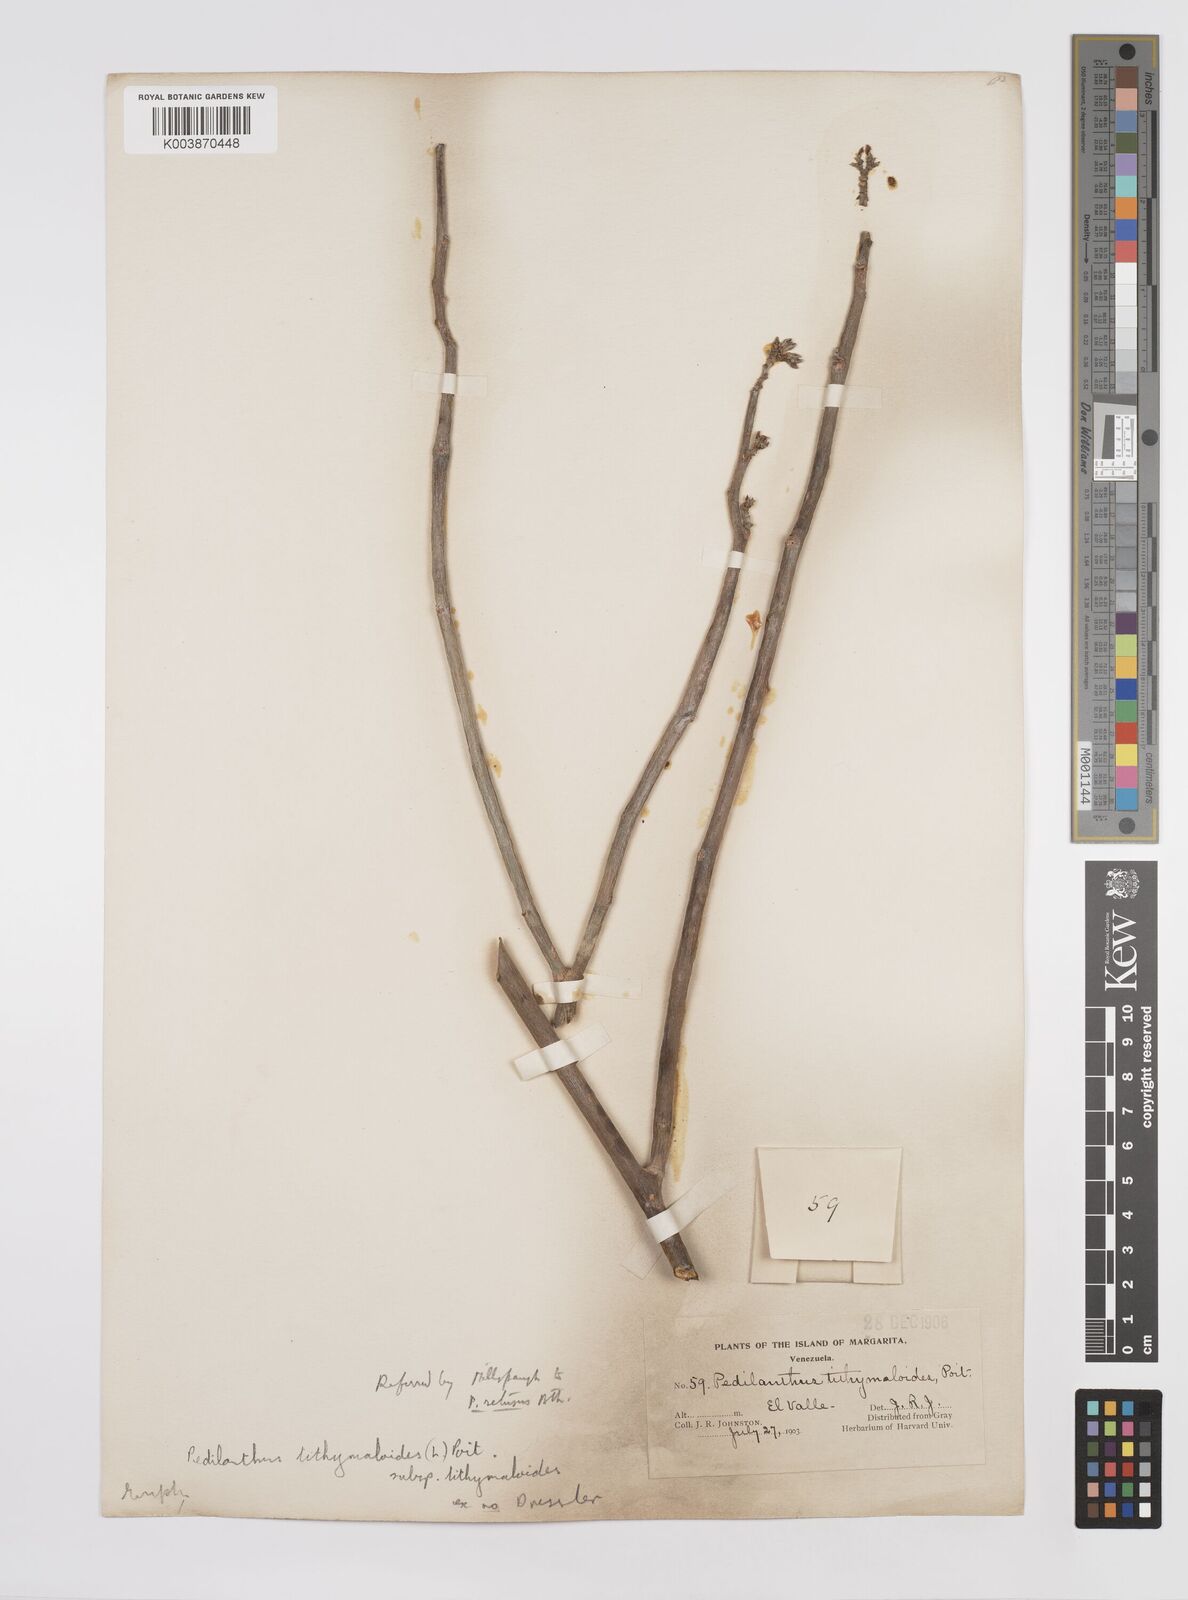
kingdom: Plantae
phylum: Tracheophyta
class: Magnoliopsida
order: Malpighiales
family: Euphorbiaceae
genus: Euphorbia
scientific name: Euphorbia tithymaloides
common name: Slipperplant
